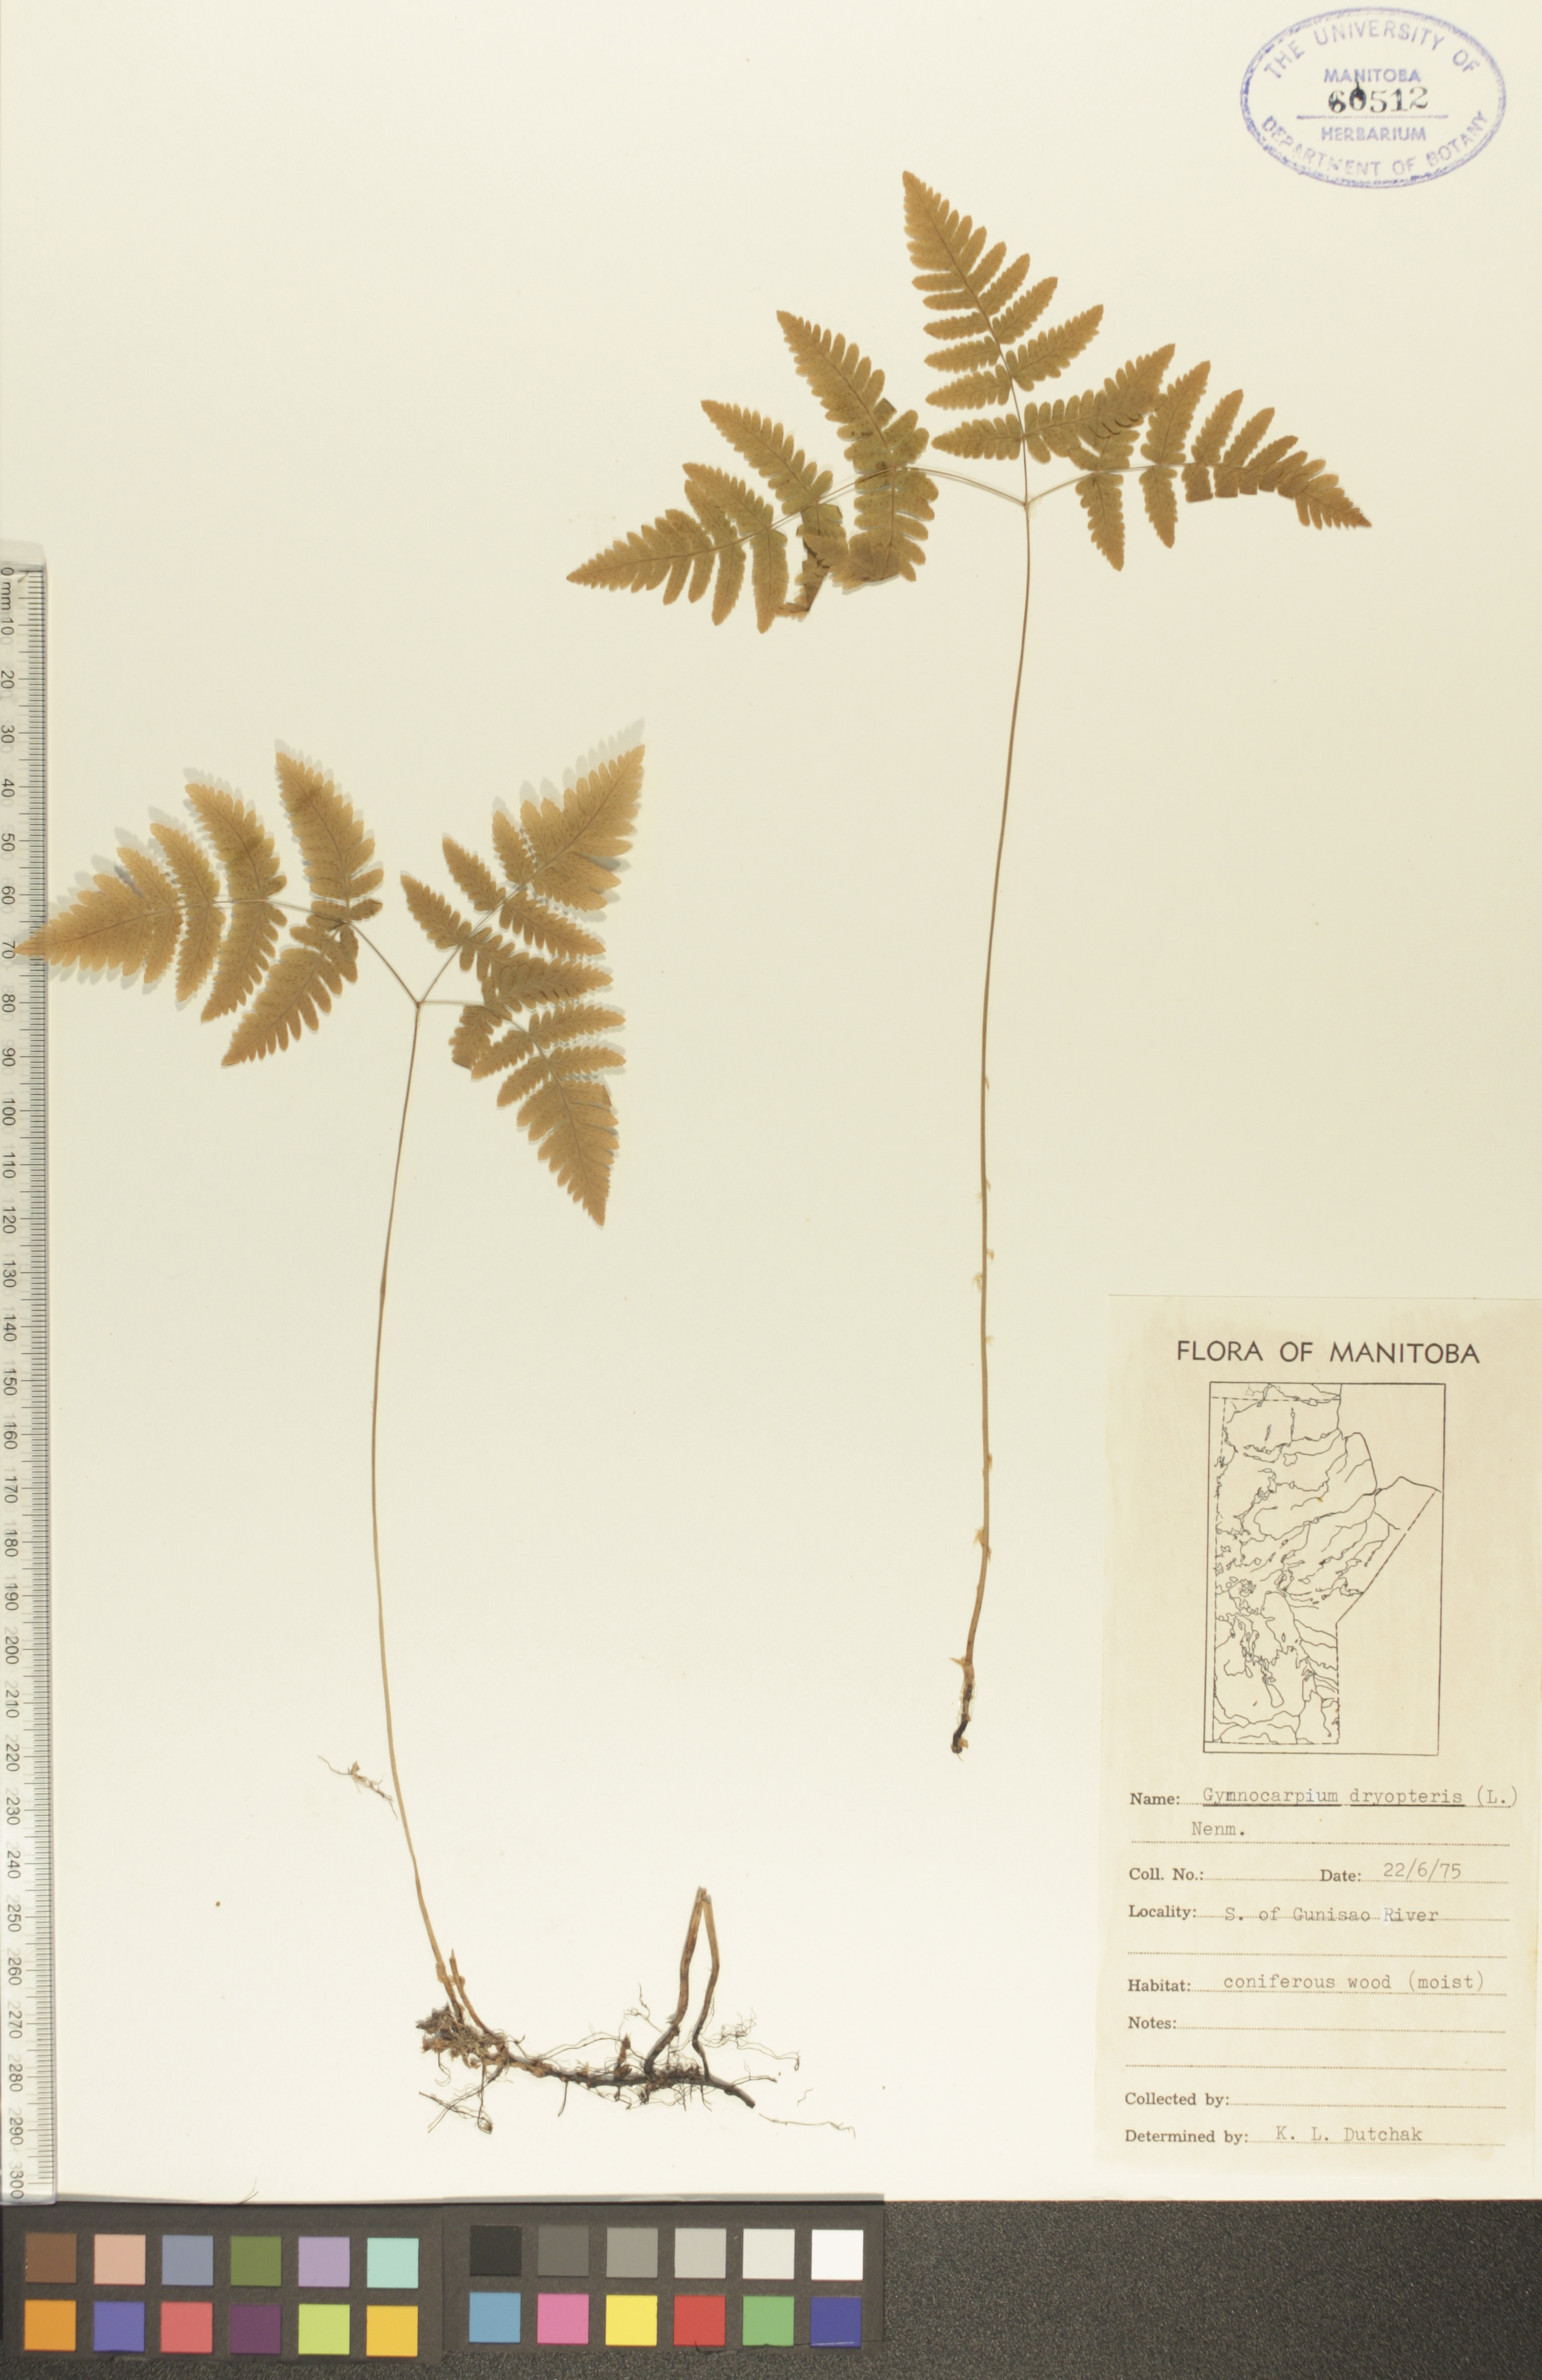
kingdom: Plantae
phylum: Tracheophyta
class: Polypodiopsida
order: Polypodiales
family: Cystopteridaceae
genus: Gymnocarpium
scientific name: Gymnocarpium dryopteris
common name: Oak fern
